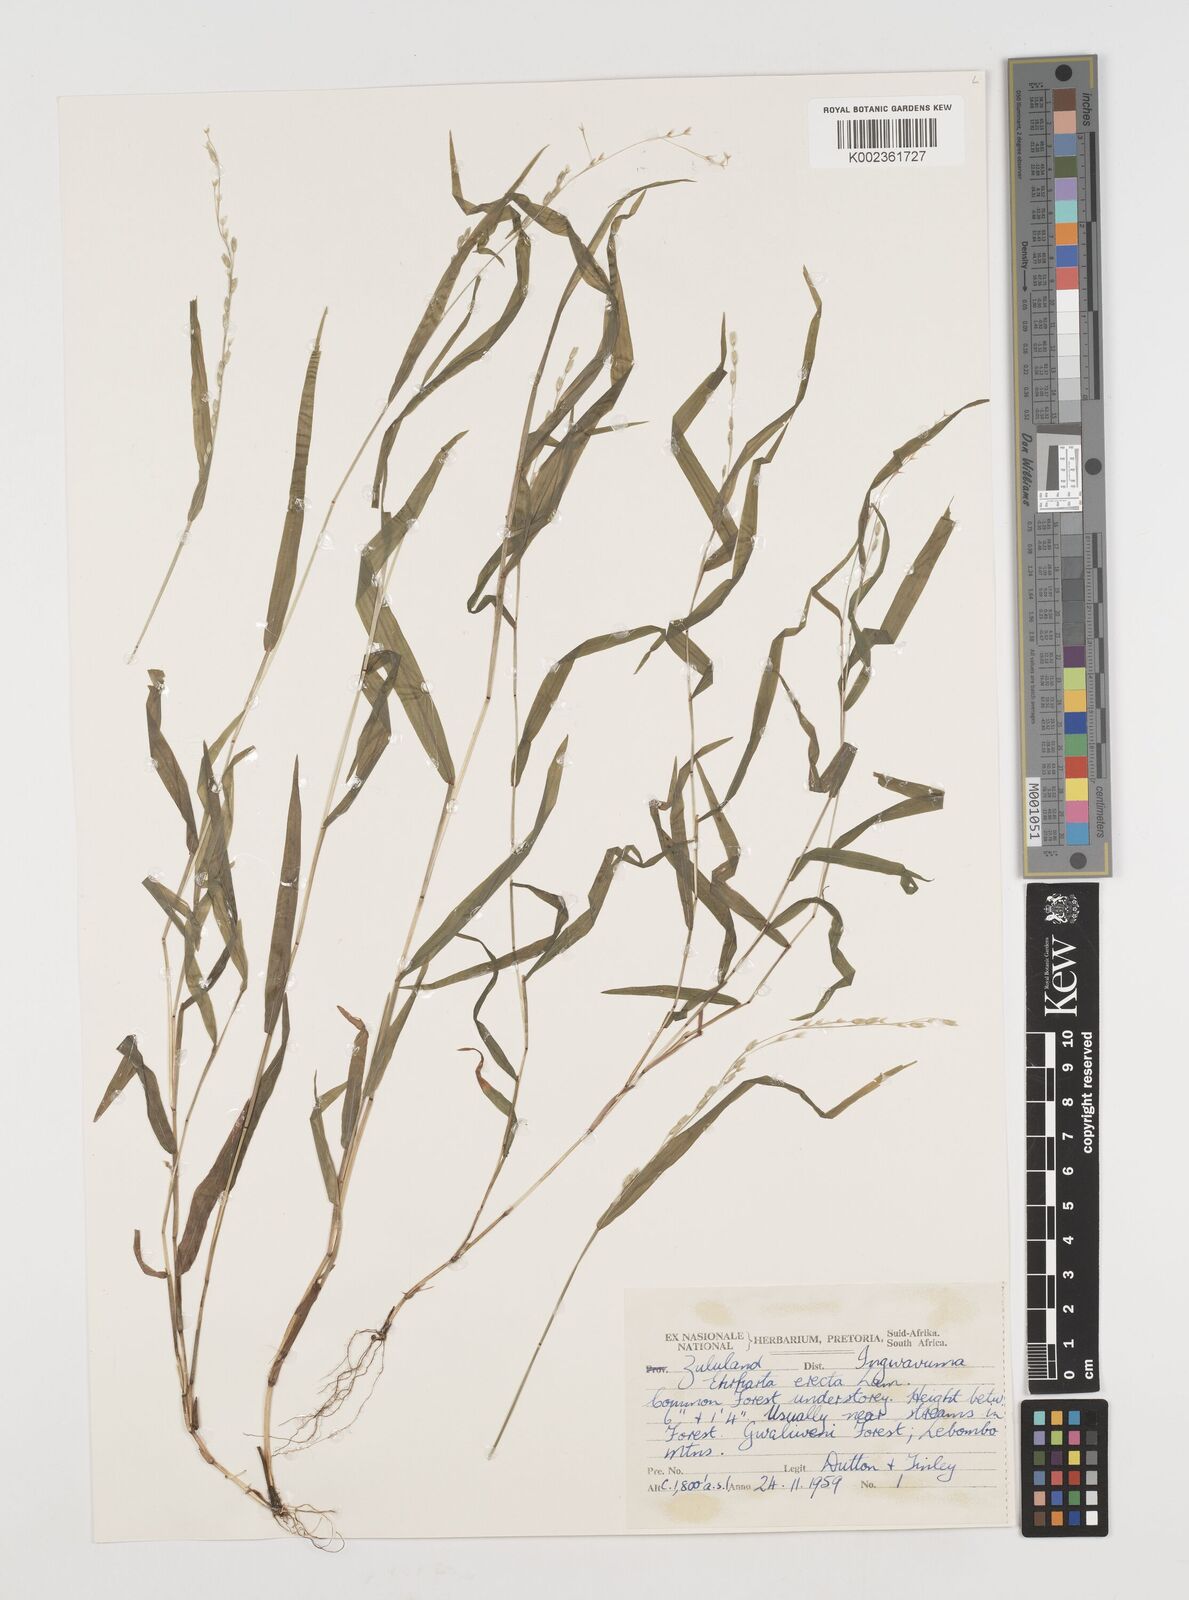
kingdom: Plantae
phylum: Tracheophyta
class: Liliopsida
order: Poales
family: Poaceae
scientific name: Poaceae
